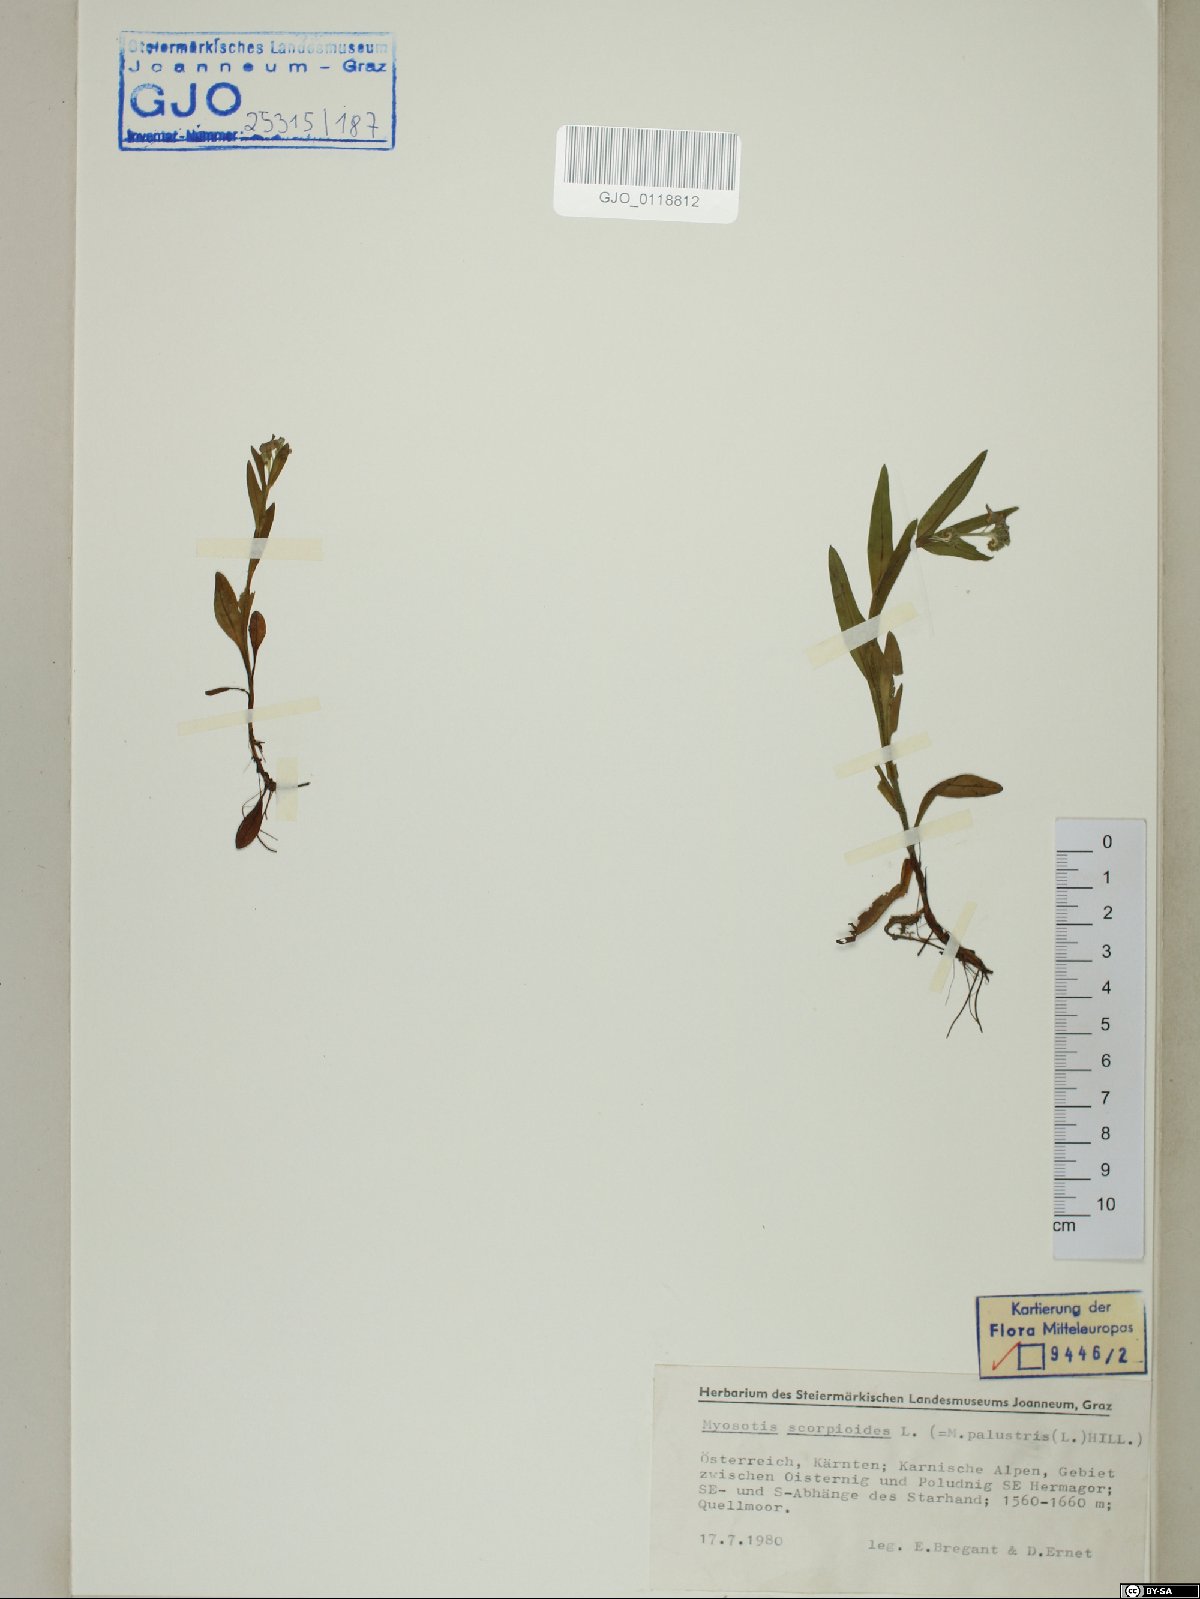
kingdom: Plantae
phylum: Tracheophyta
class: Magnoliopsida
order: Boraginales
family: Boraginaceae
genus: Myosotis
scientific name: Myosotis scorpioides
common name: Water forget-me-not
